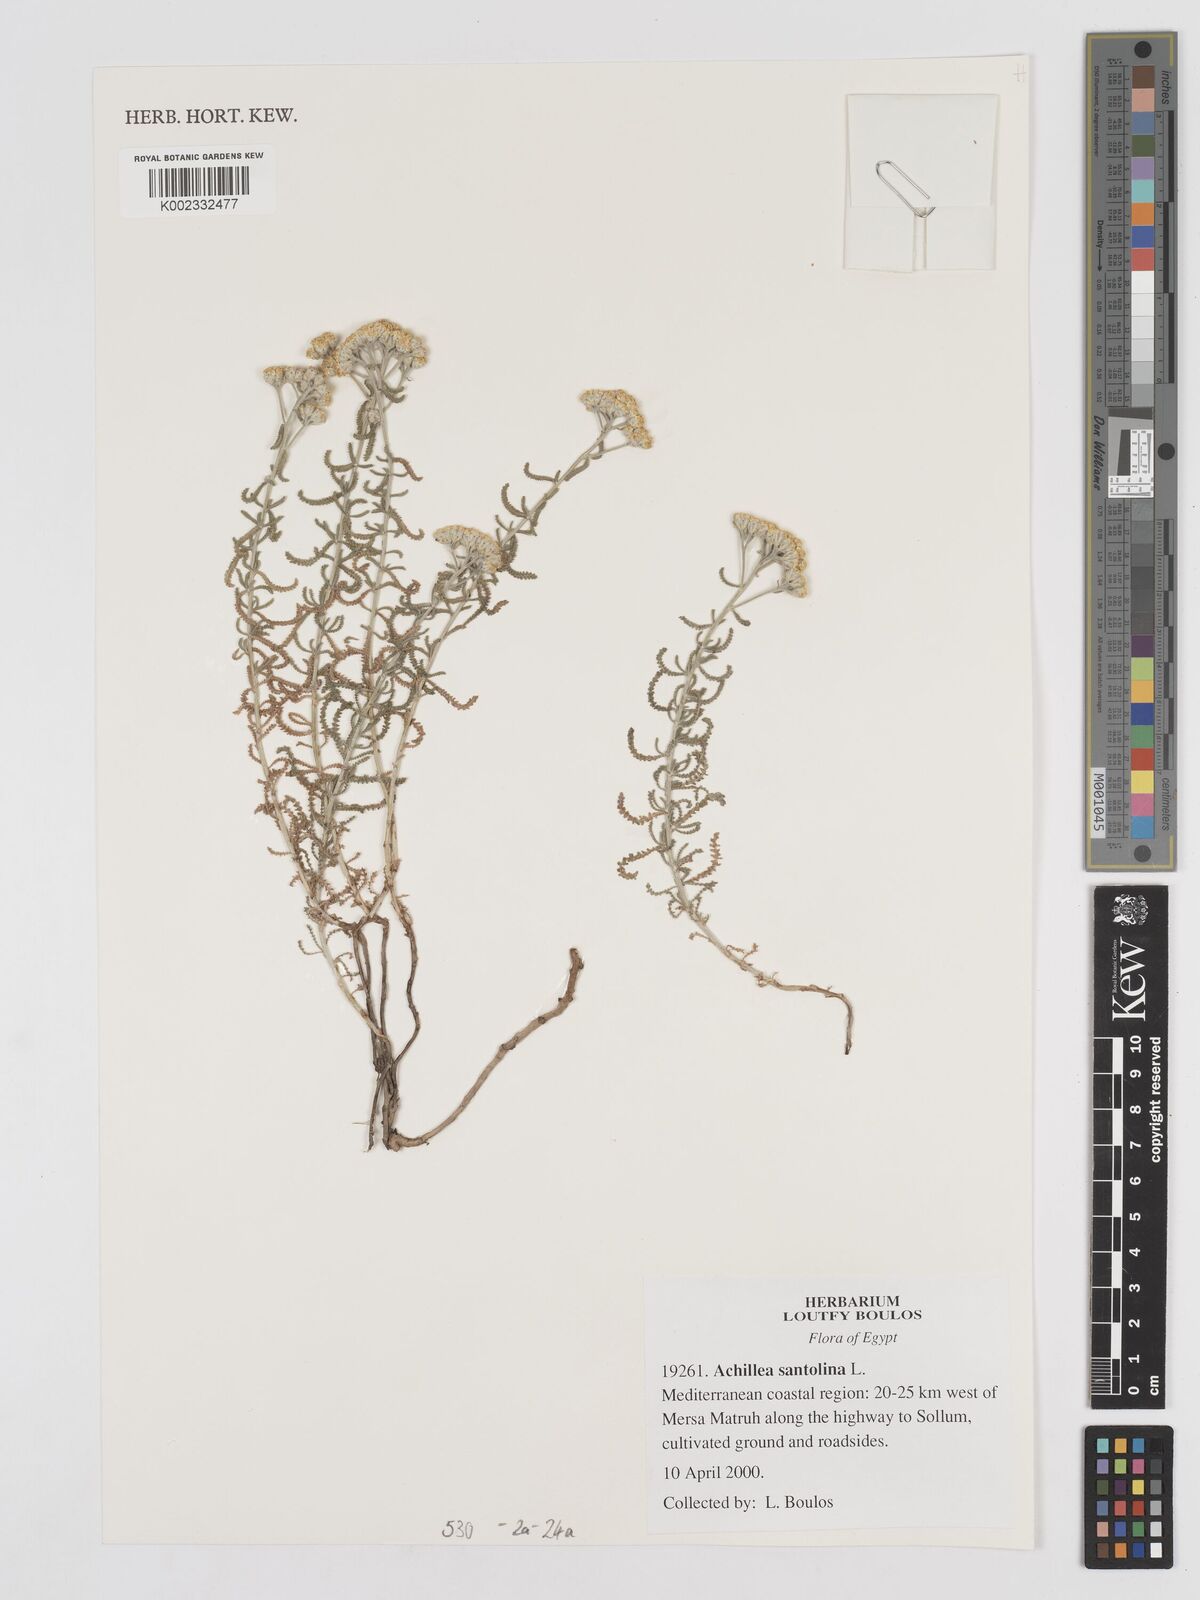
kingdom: Plantae
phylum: Tracheophyta
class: Magnoliopsida
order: Asterales
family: Asteraceae
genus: Achillea
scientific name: Achillea tenuifolia
